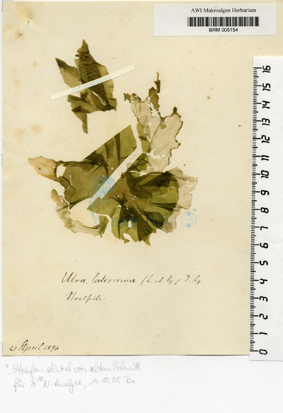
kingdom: Chromista
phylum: Ochrophyta
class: Phaeophyceae
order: Laminariales
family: Laminariaceae
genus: Saccharina
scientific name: Saccharina latissima
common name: Poor man's weather glass
